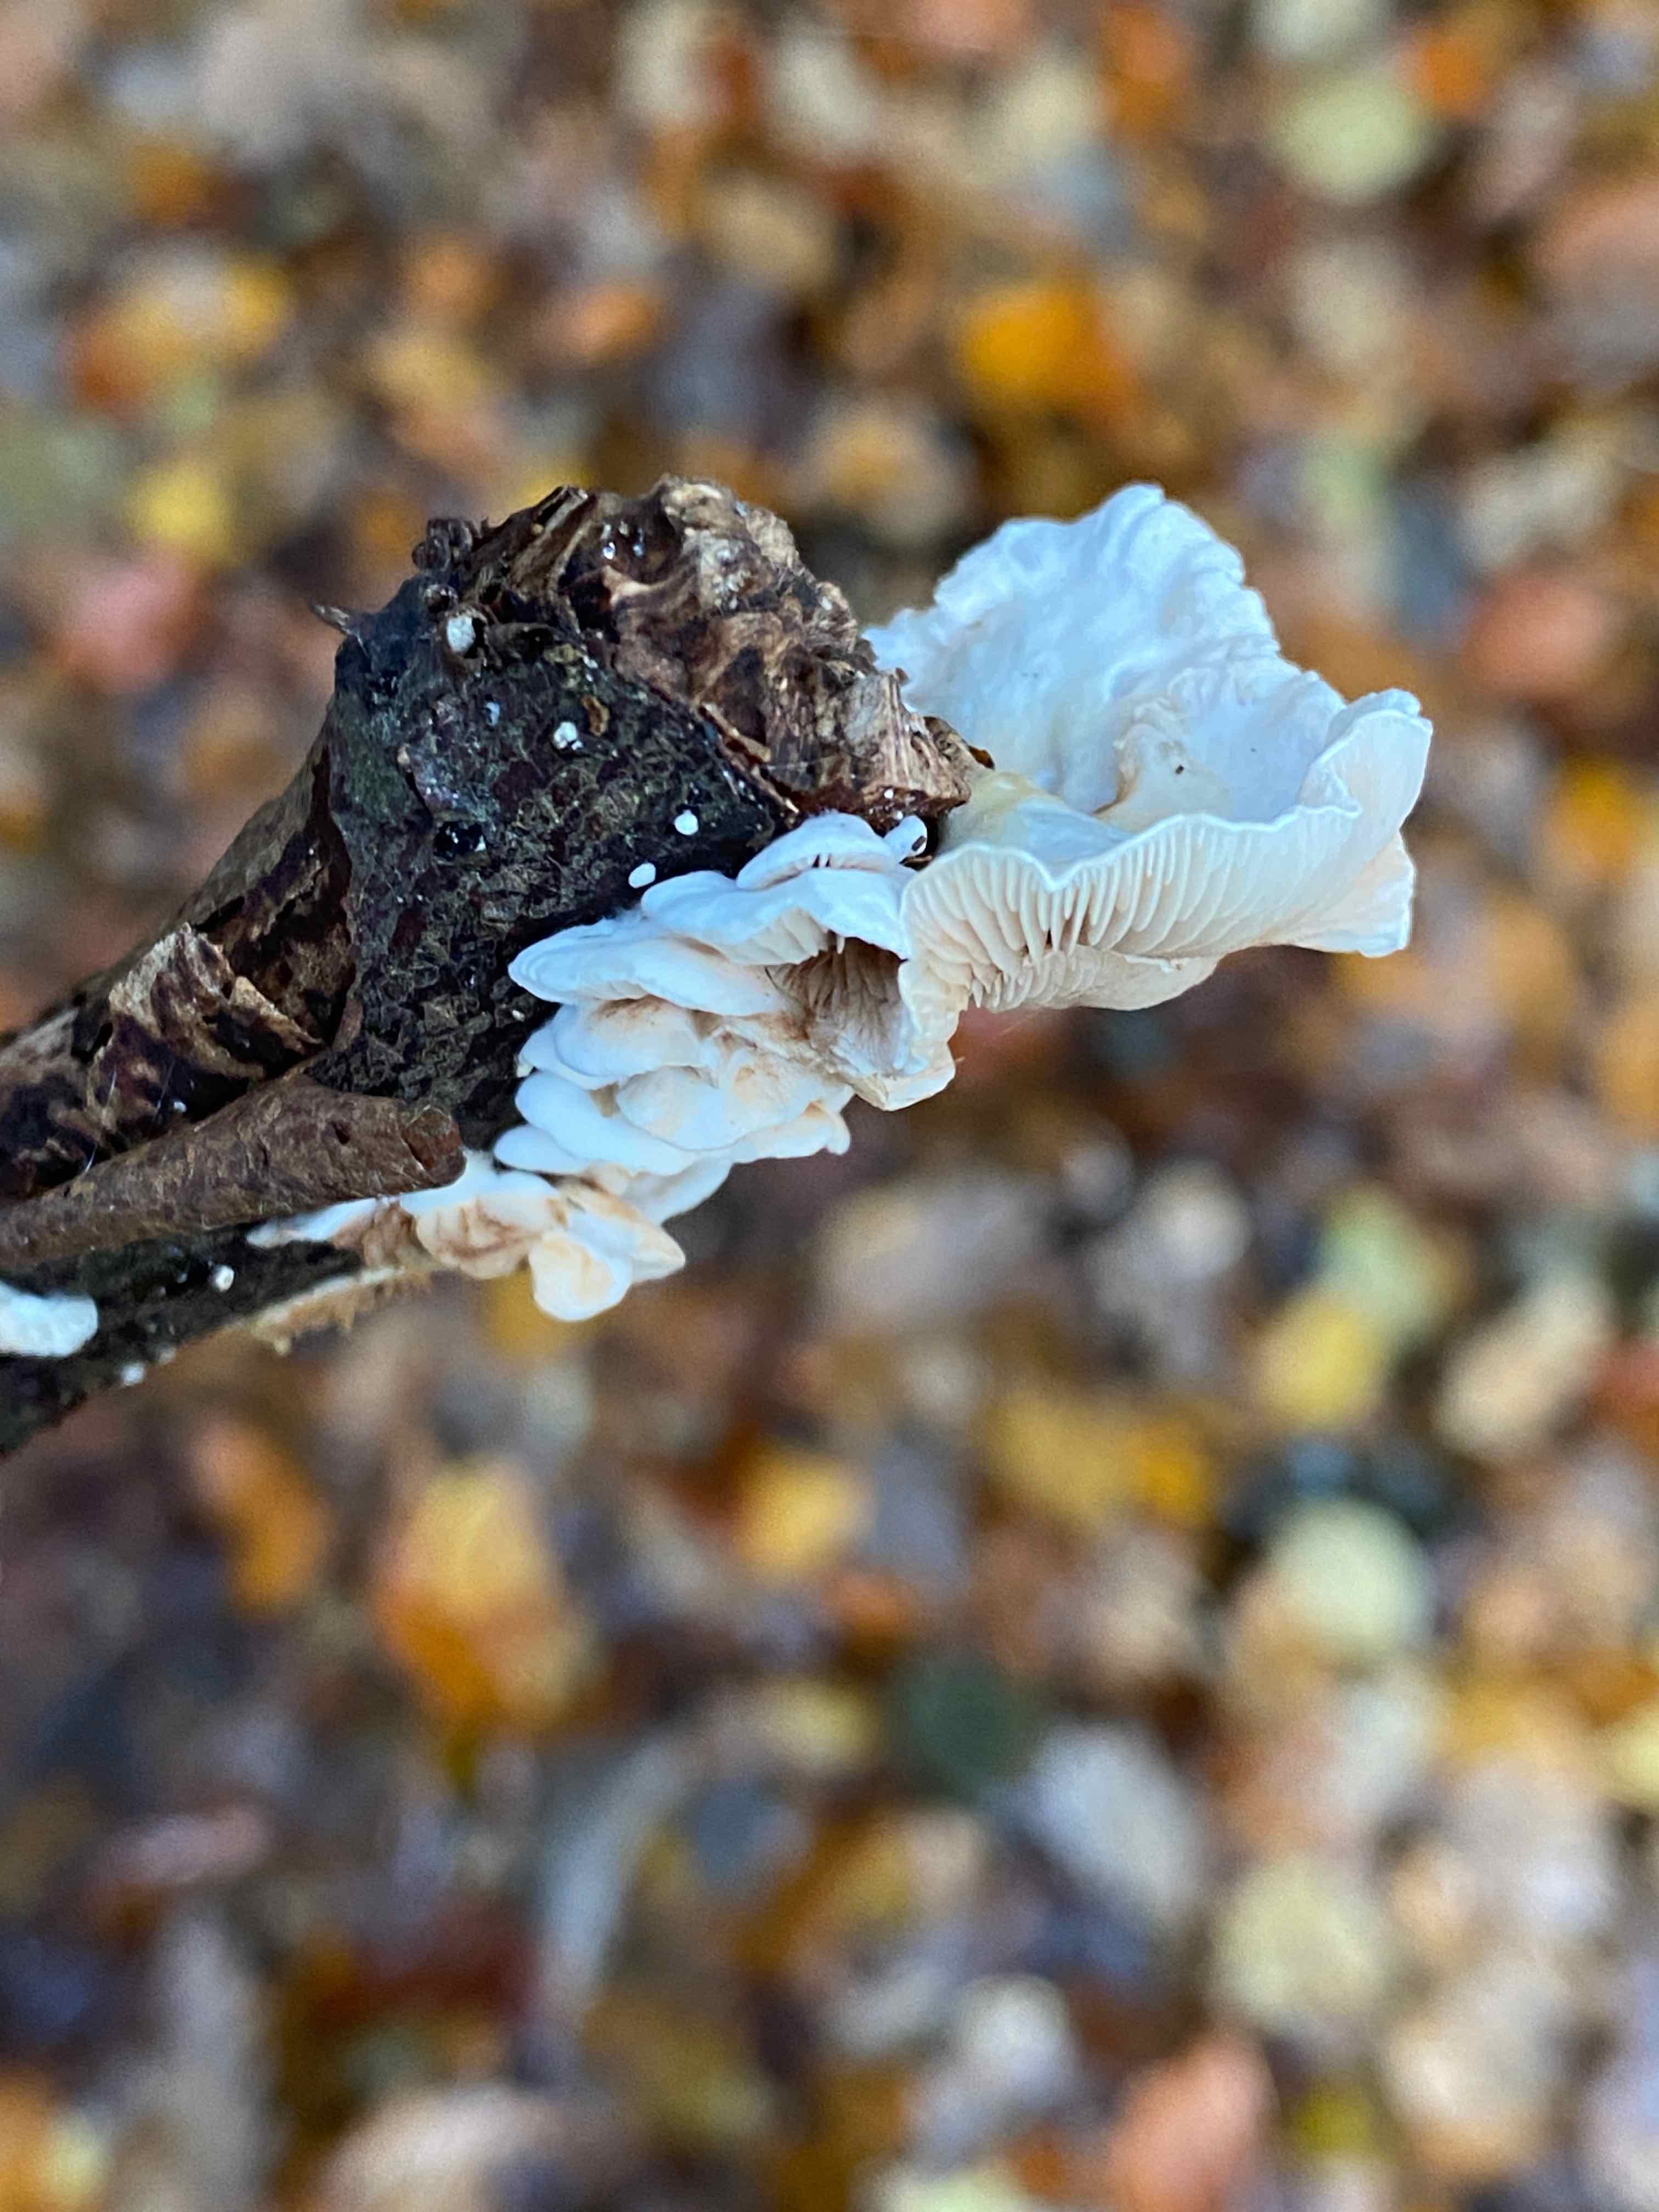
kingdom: Fungi
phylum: Basidiomycota
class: Agaricomycetes
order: Agaricales
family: Crepidotaceae
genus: Crepidotus
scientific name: Crepidotus
